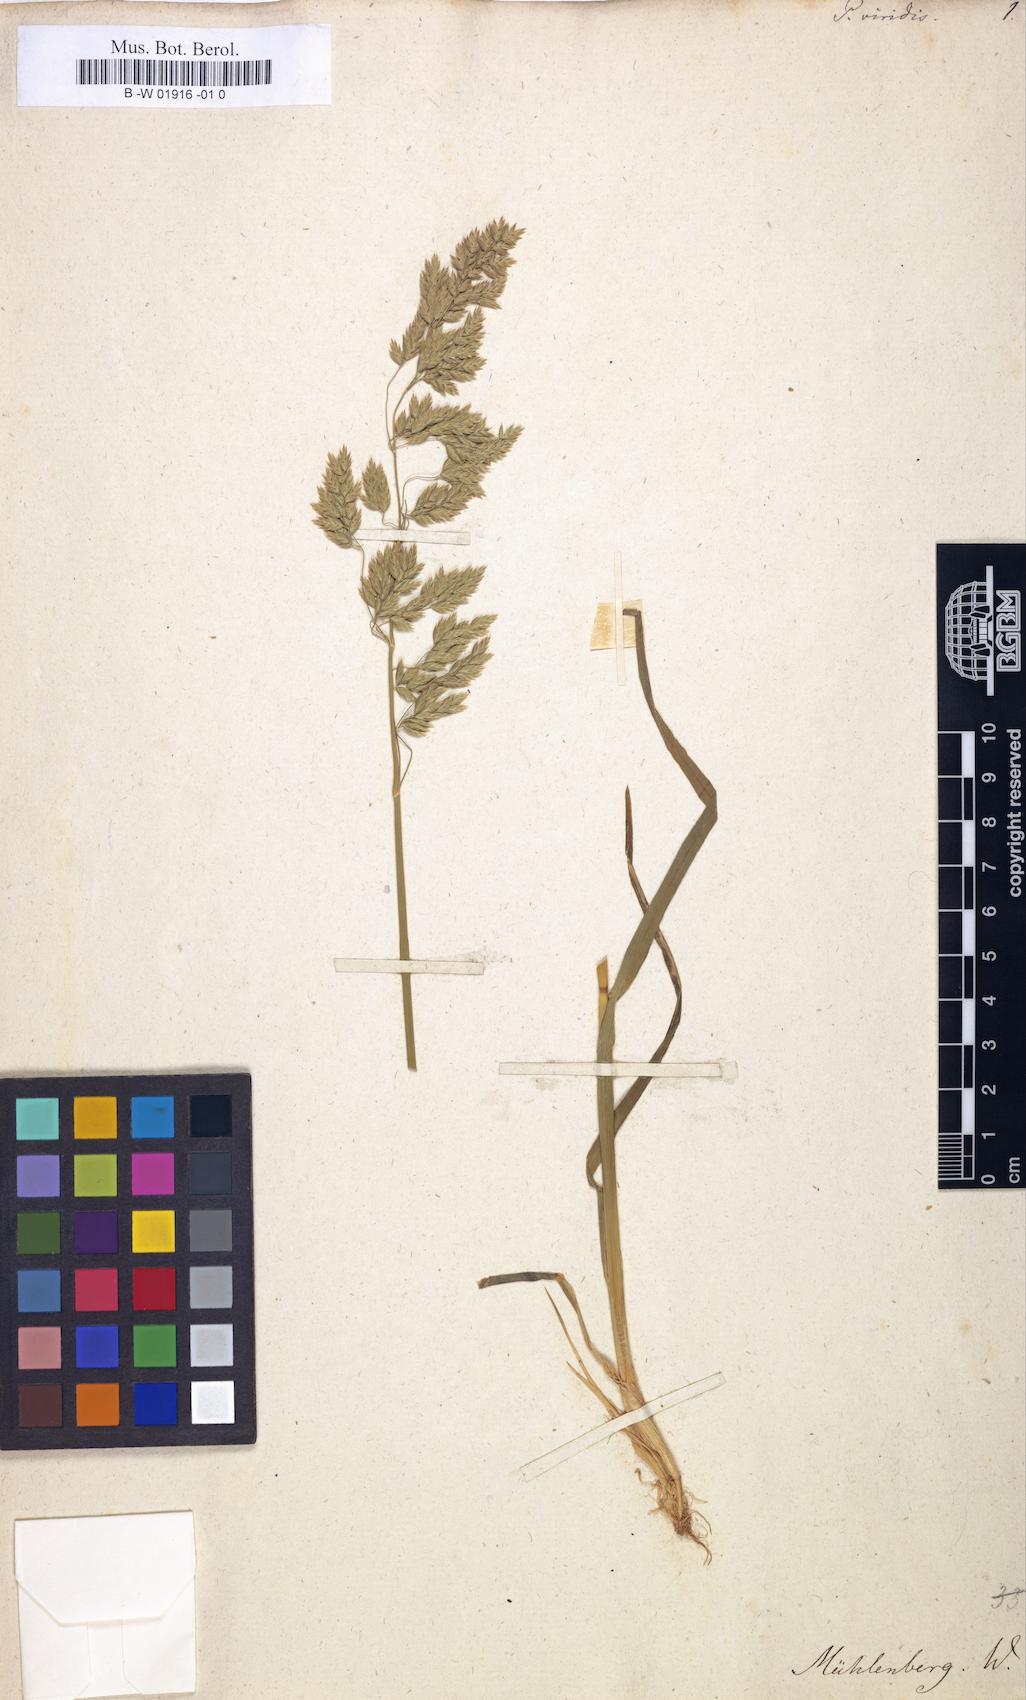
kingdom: Plantae
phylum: Tracheophyta
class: Liliopsida
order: Poales
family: Poaceae
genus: Poa
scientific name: Poa viridis
